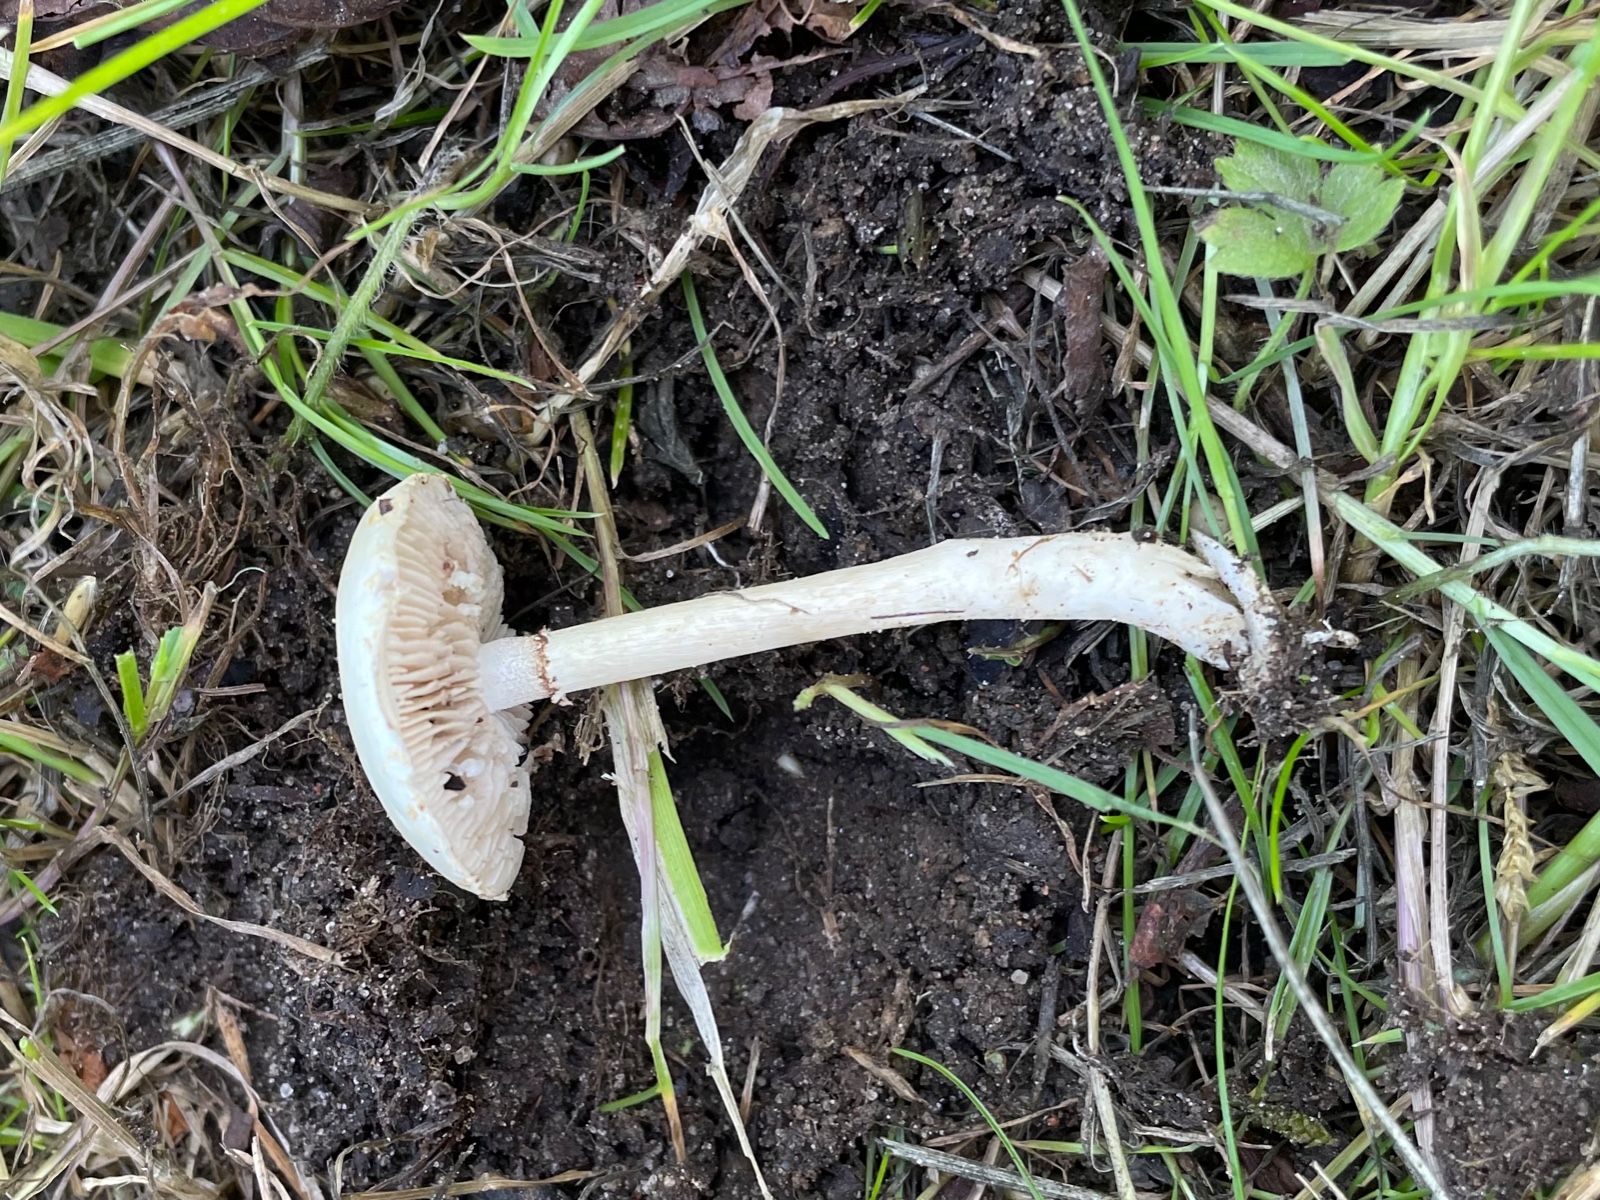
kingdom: Fungi
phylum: Basidiomycota
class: Agaricomycetes
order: Agaricales
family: Strophariaceae
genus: Agrocybe
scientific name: Agrocybe dura
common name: fastkødet agerhat
